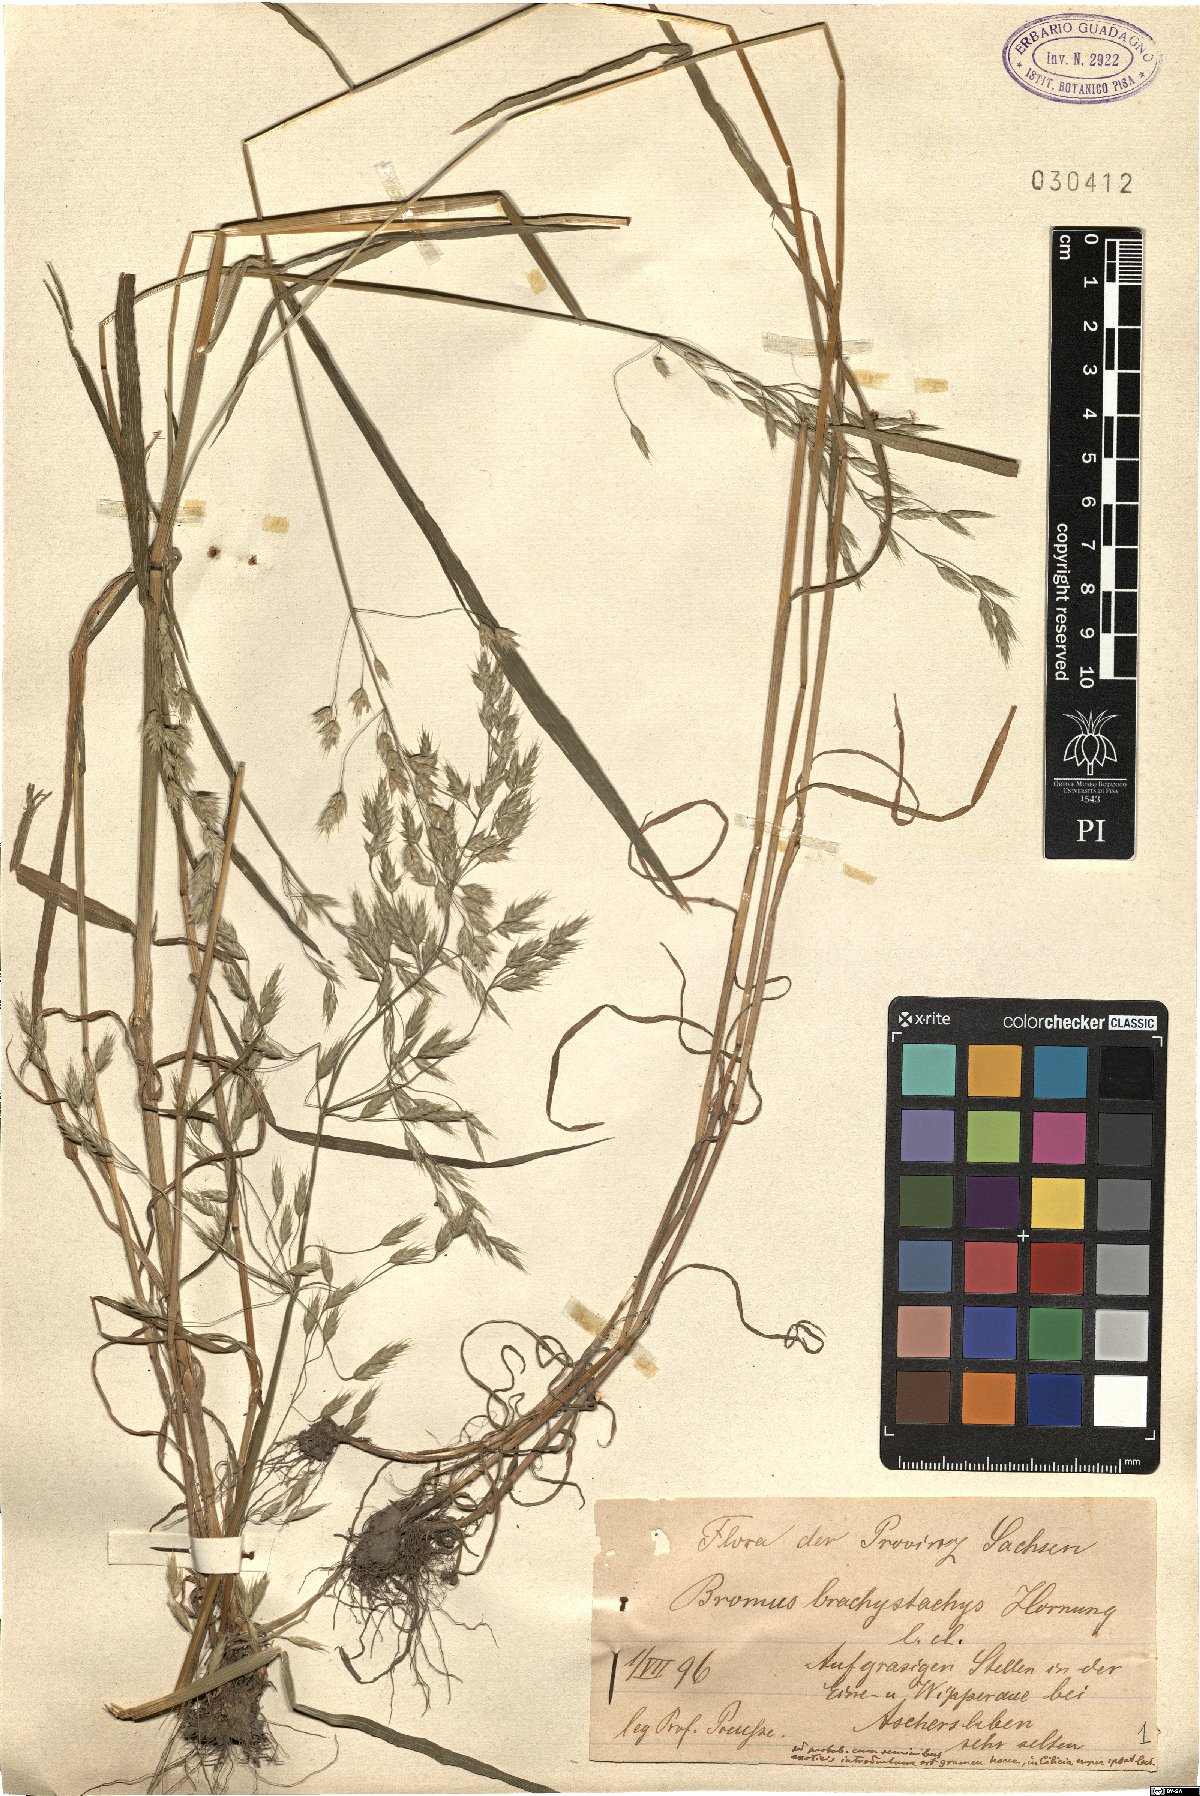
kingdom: Plantae
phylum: Tracheophyta
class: Liliopsida
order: Poales
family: Poaceae
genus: Bromus
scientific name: Bromus brachystachys
